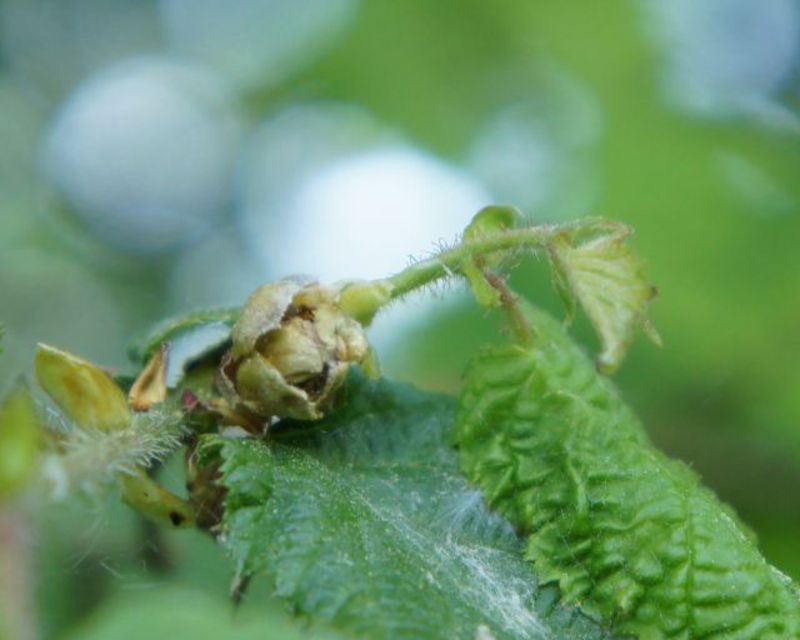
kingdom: Animalia
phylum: Arthropoda
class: Arachnida
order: Trombidiformes
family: Phytoptidae
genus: Phytoptus
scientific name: Phytoptus avellanae
